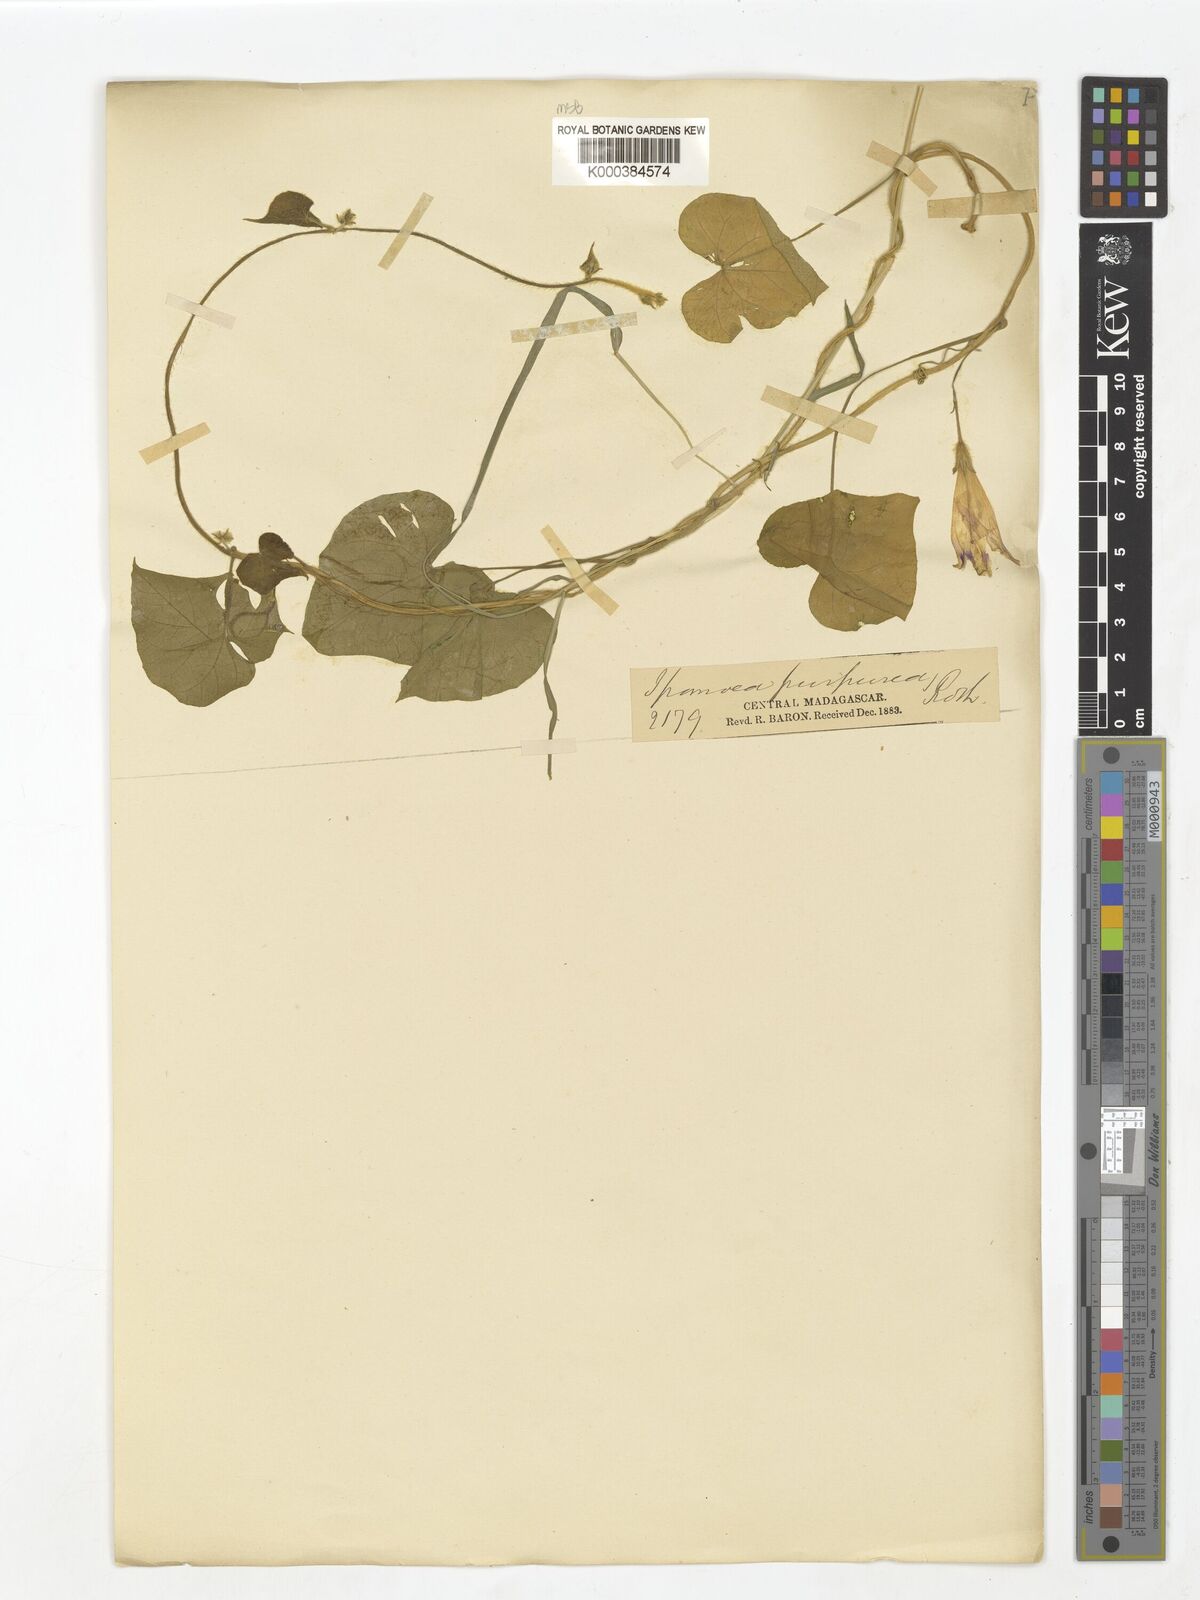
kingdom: Plantae
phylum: Tracheophyta
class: Magnoliopsida
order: Solanales
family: Convolvulaceae
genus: Ipomoea
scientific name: Ipomoea purpurea
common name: Common morning-glory
